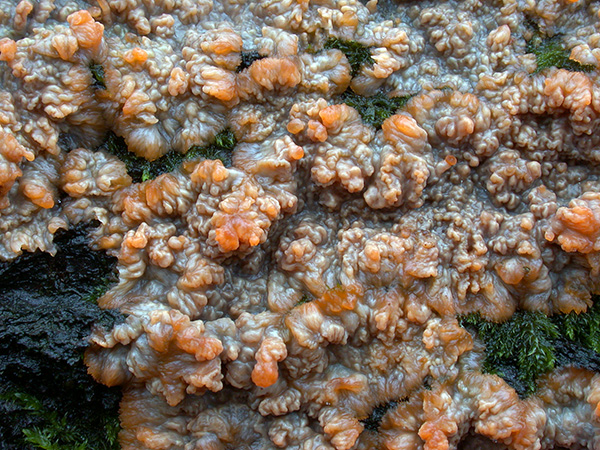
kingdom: Fungi
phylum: Basidiomycota
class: Agaricomycetes
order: Polyporales
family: Meruliaceae
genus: Phlebia
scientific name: Phlebia radiata
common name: stråle-åresvamp
